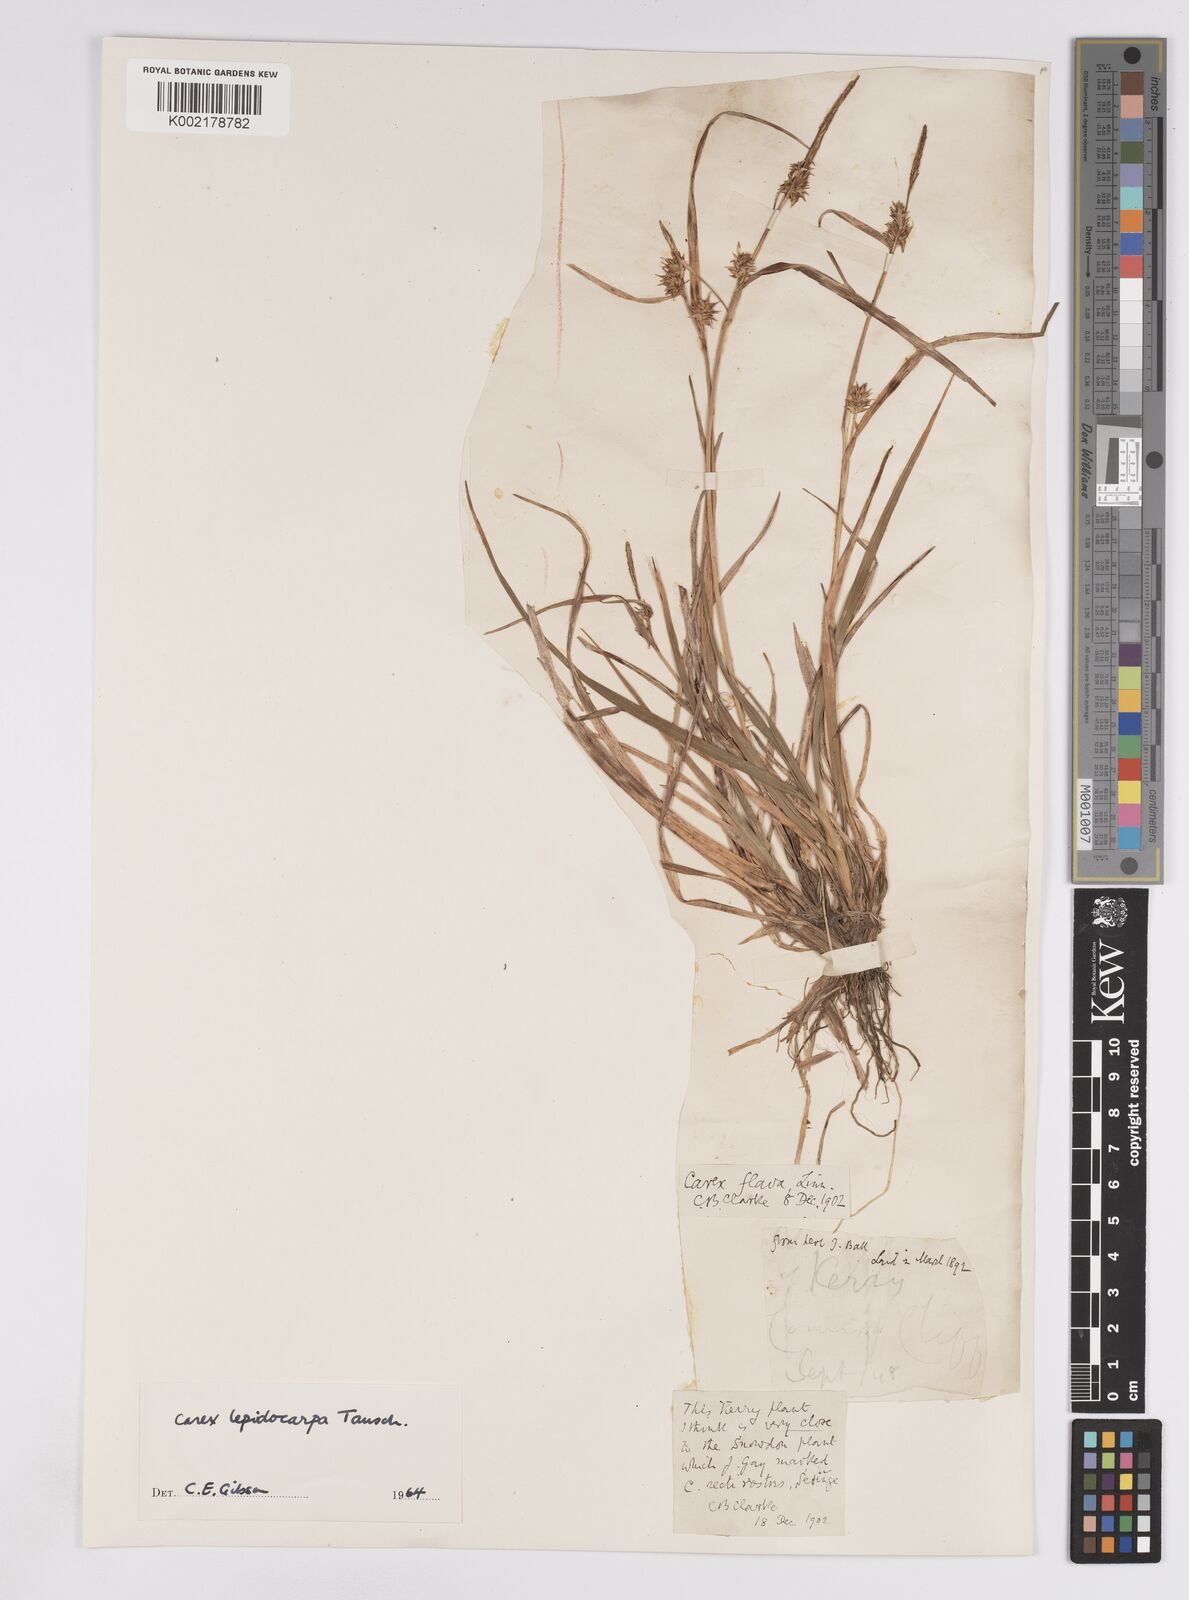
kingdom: Plantae
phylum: Tracheophyta
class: Liliopsida
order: Poales
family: Cyperaceae
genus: Carex
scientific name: Carex lepidocarpa
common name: Long-stalked yellow-sedge
